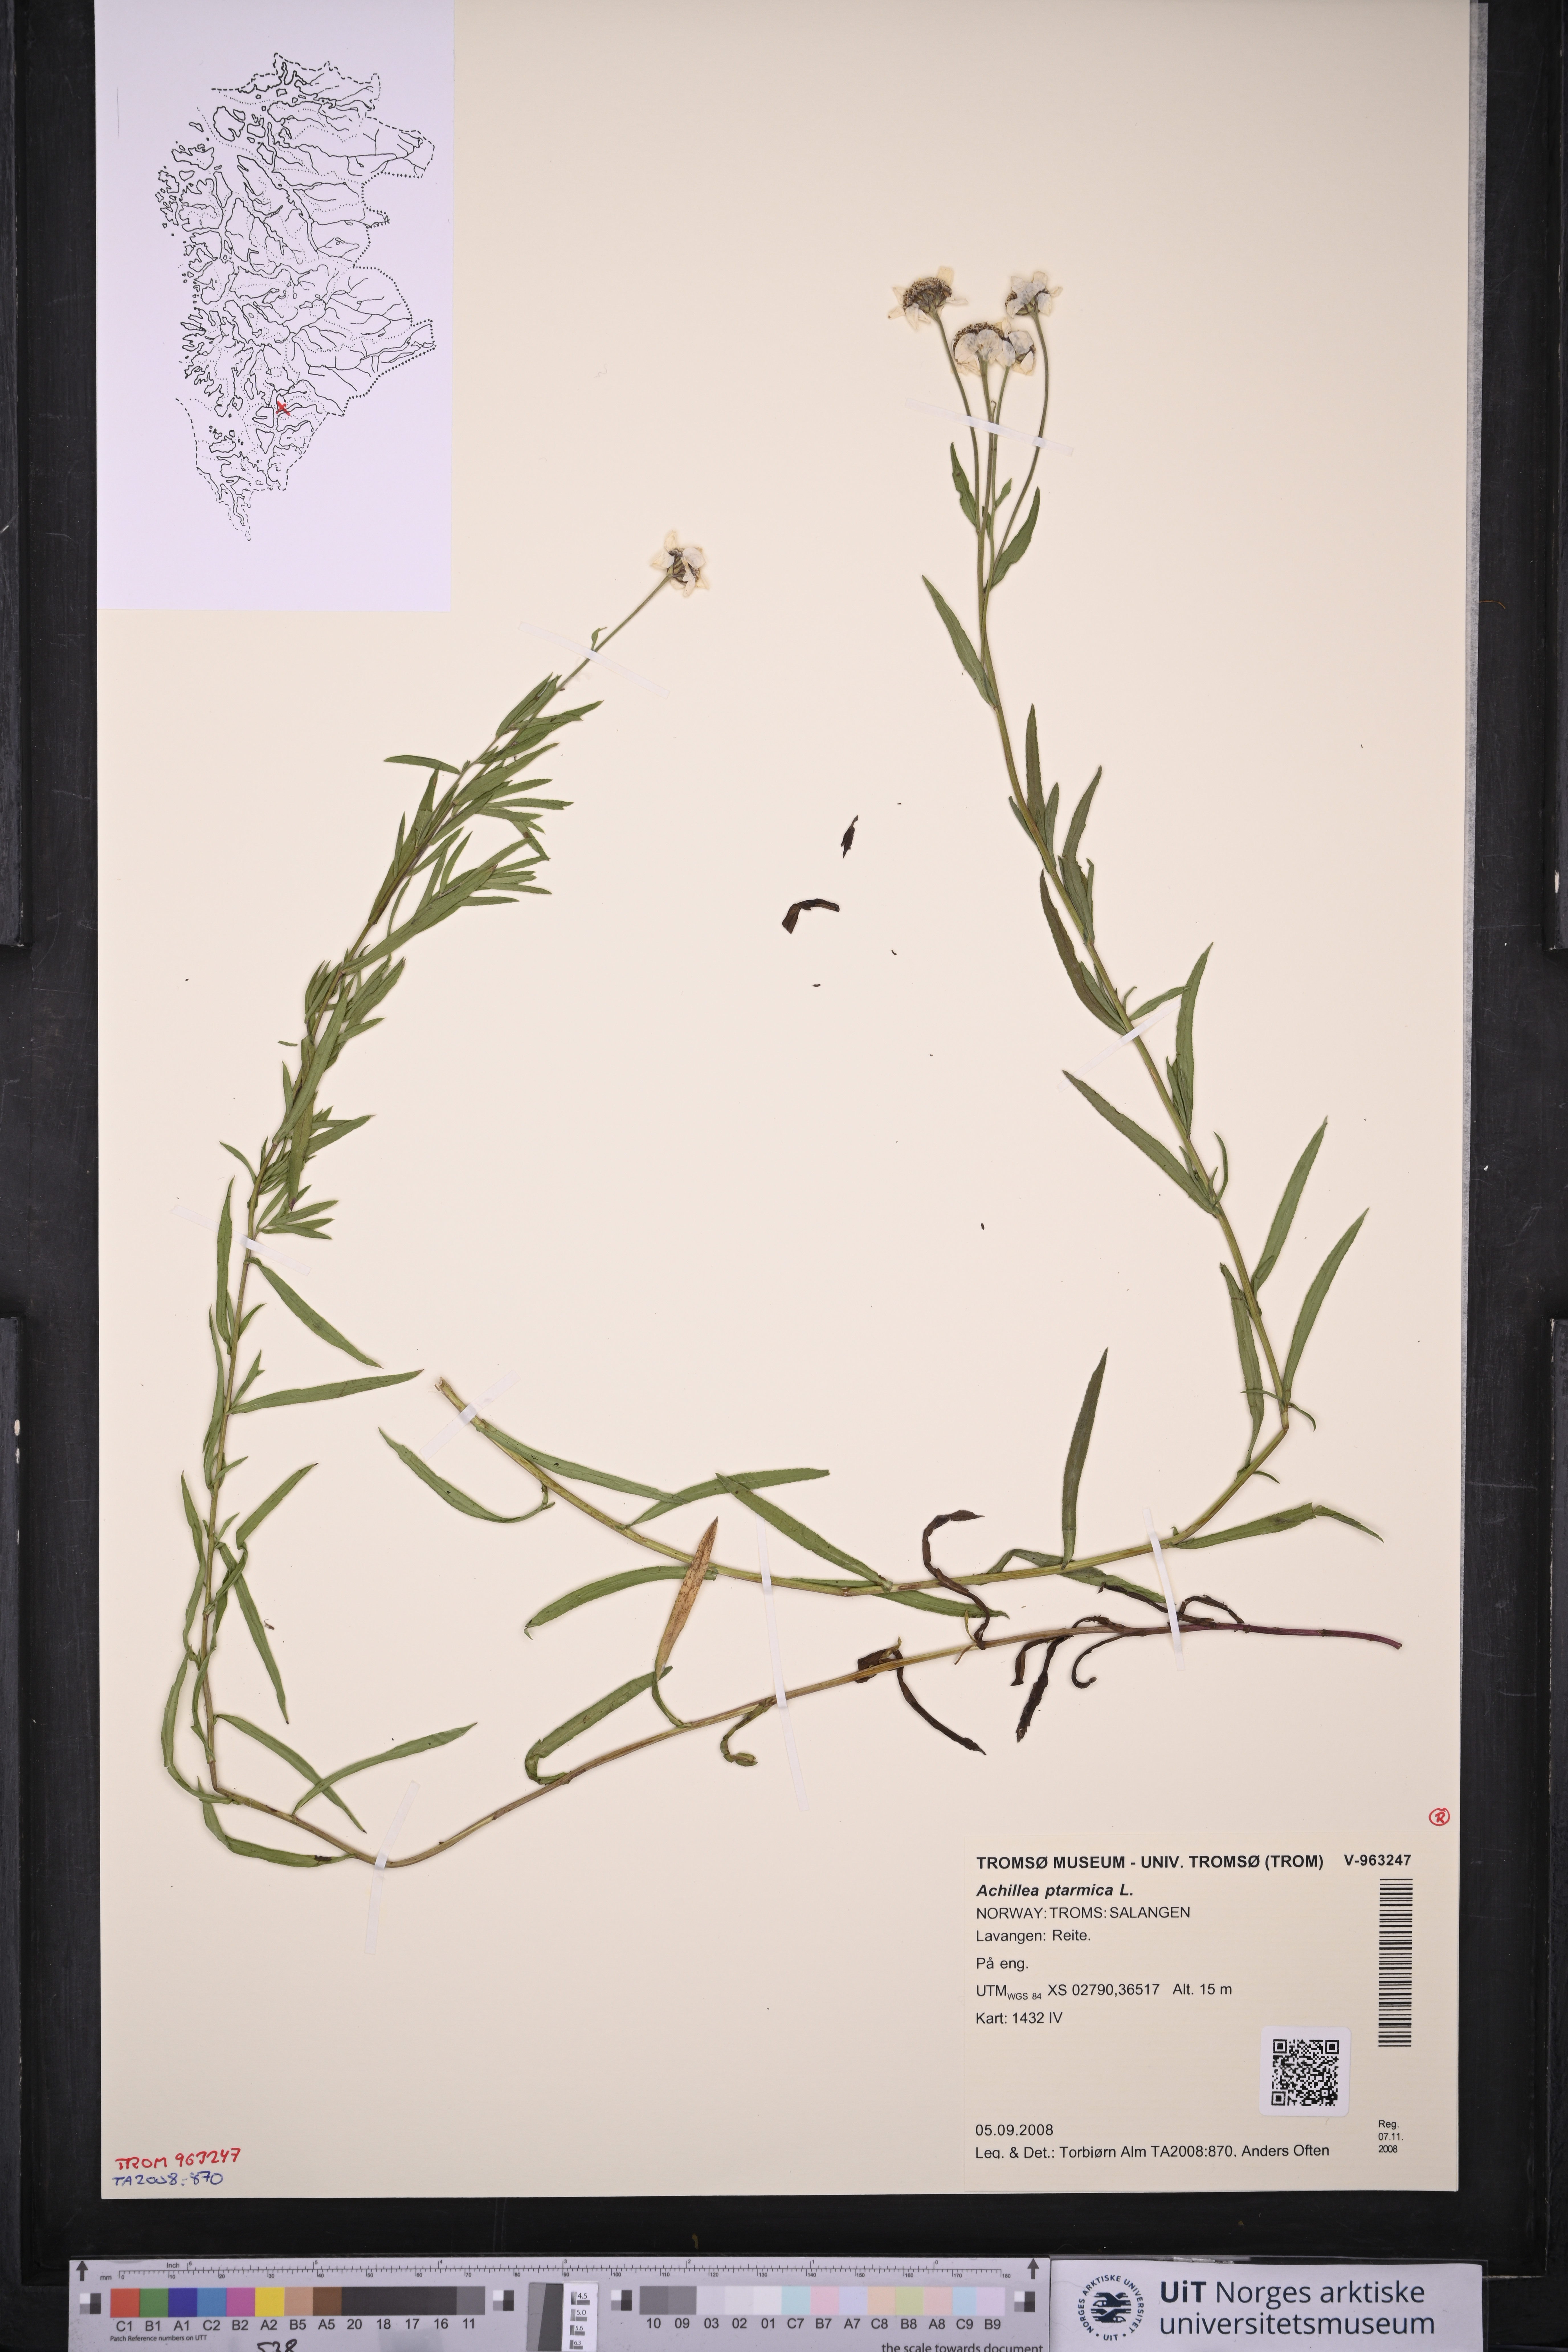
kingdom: Plantae
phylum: Tracheophyta
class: Magnoliopsida
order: Asterales
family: Asteraceae
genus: Achillea
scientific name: Achillea ptarmica
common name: Sneezeweed
